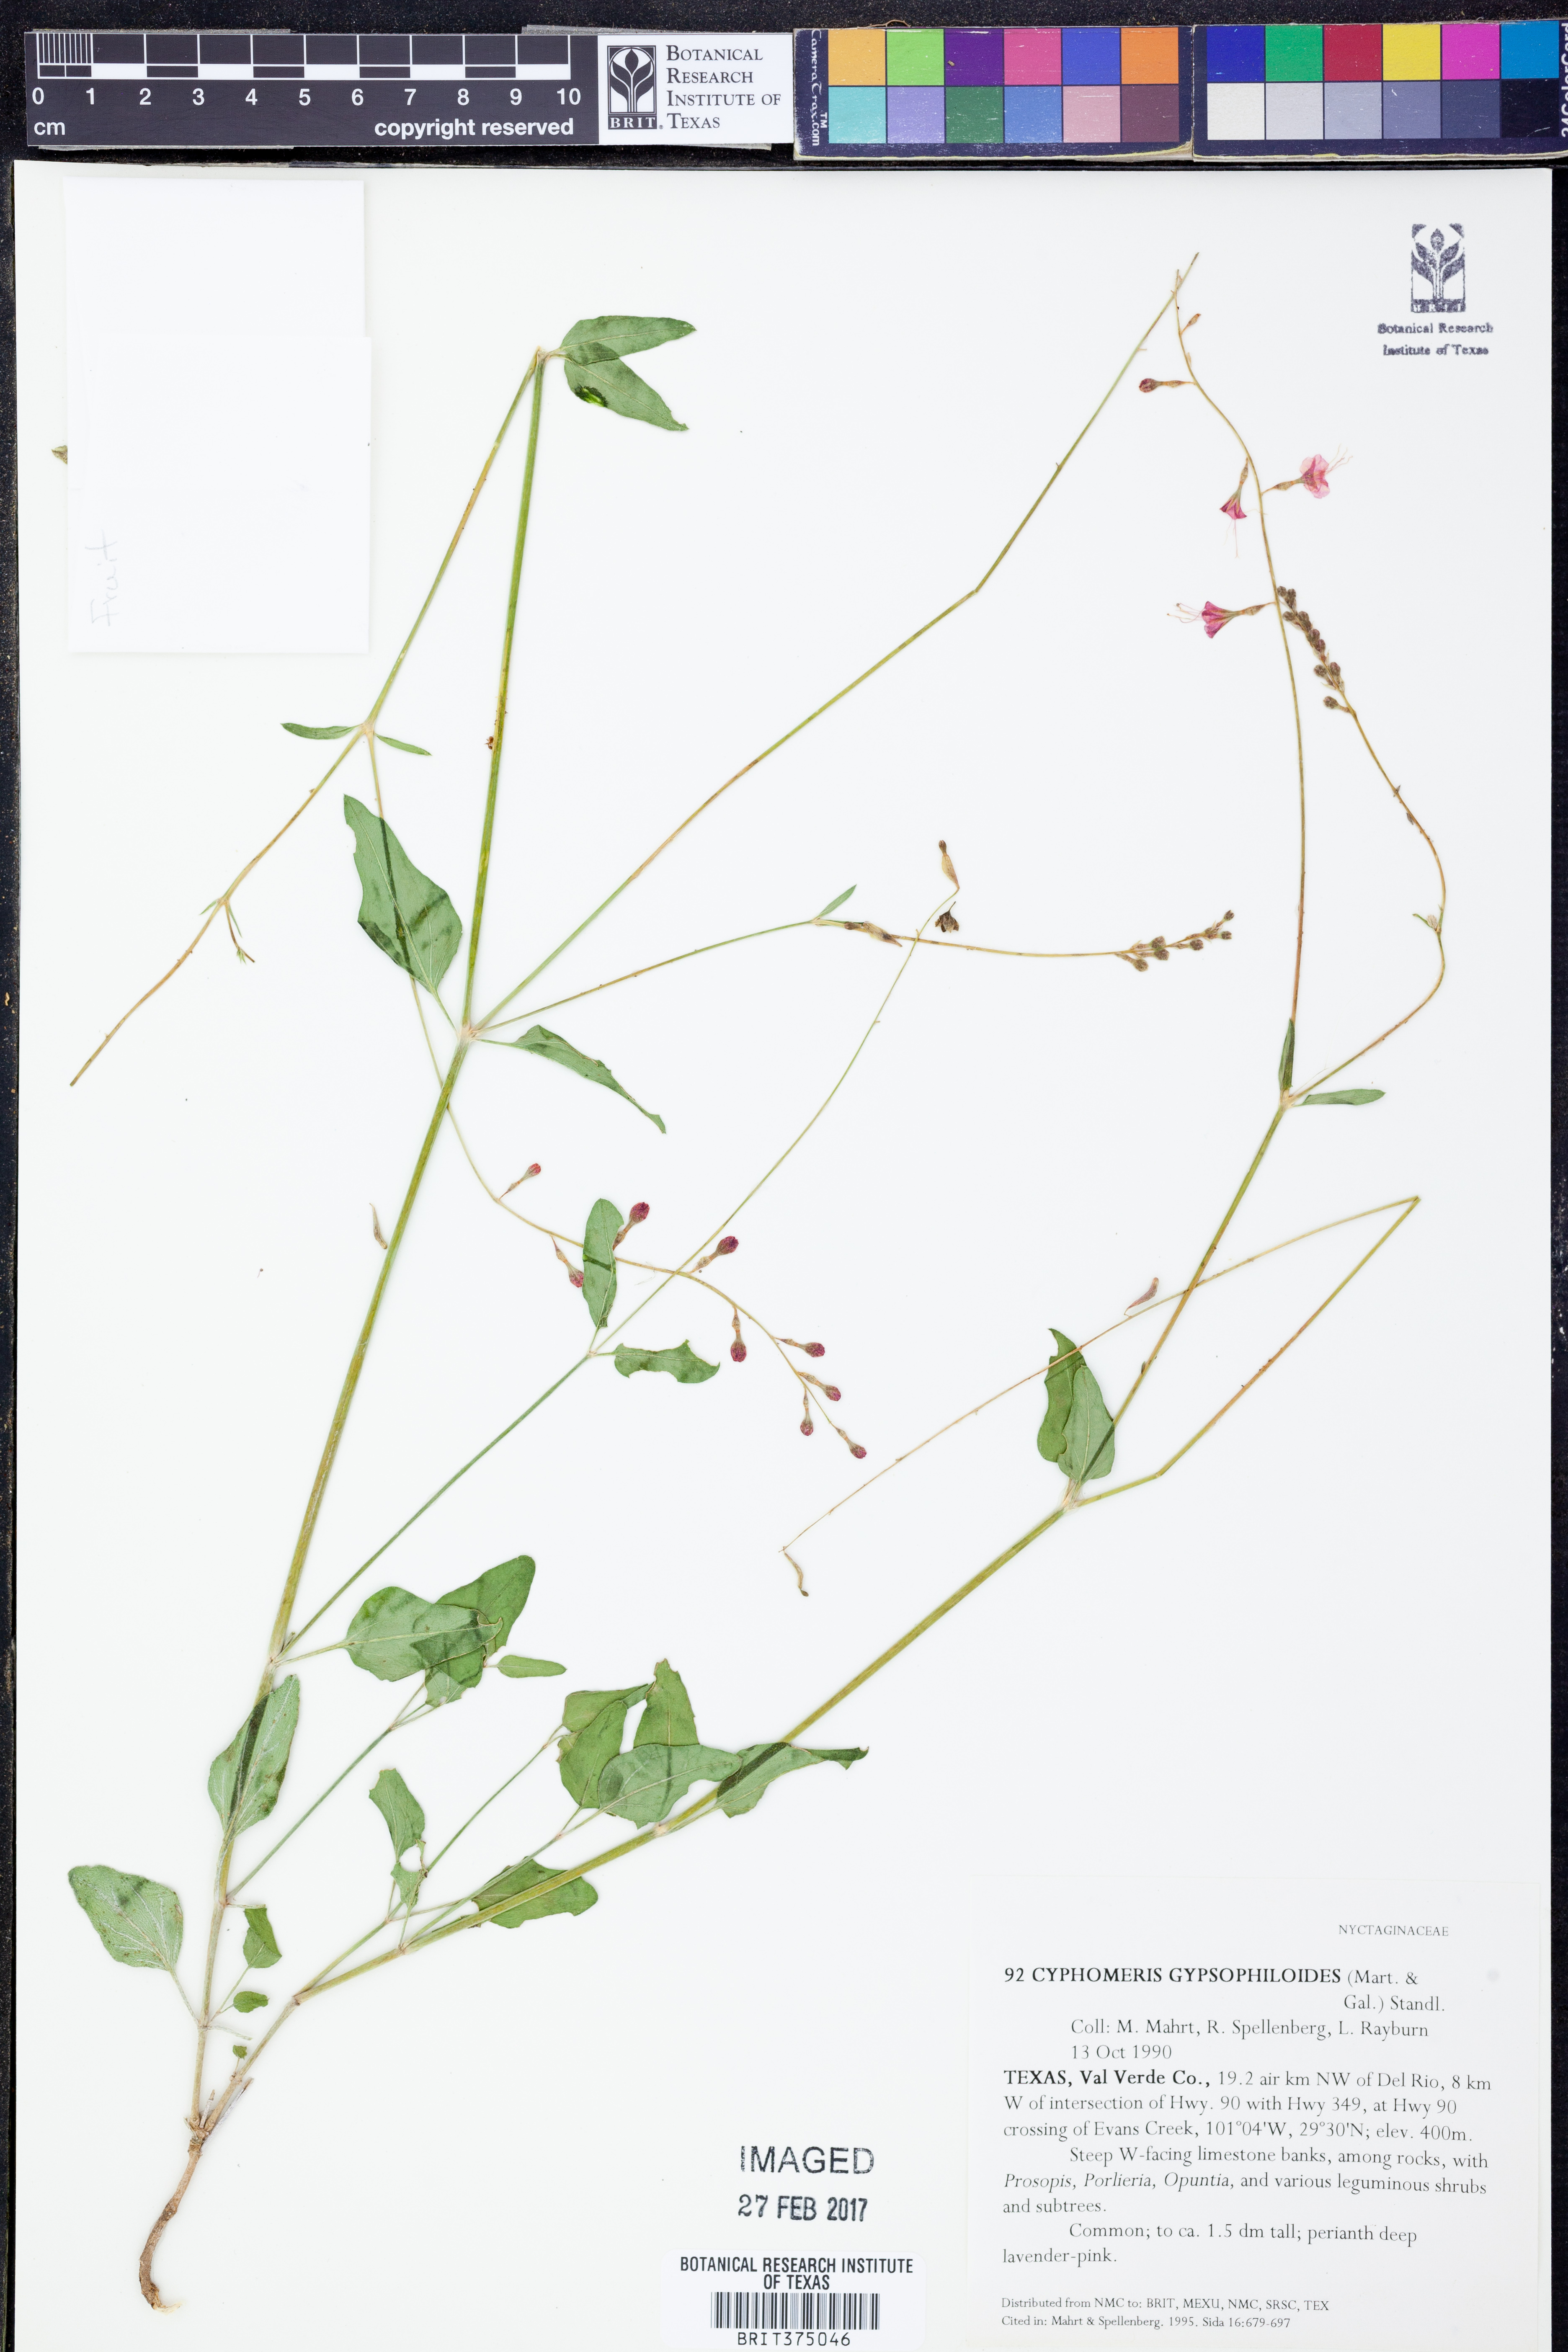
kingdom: Plantae
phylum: Tracheophyta
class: Magnoliopsida
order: Caryophyllales
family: Nyctaginaceae
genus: Cyphomeris
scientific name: Cyphomeris gypsophiloides
